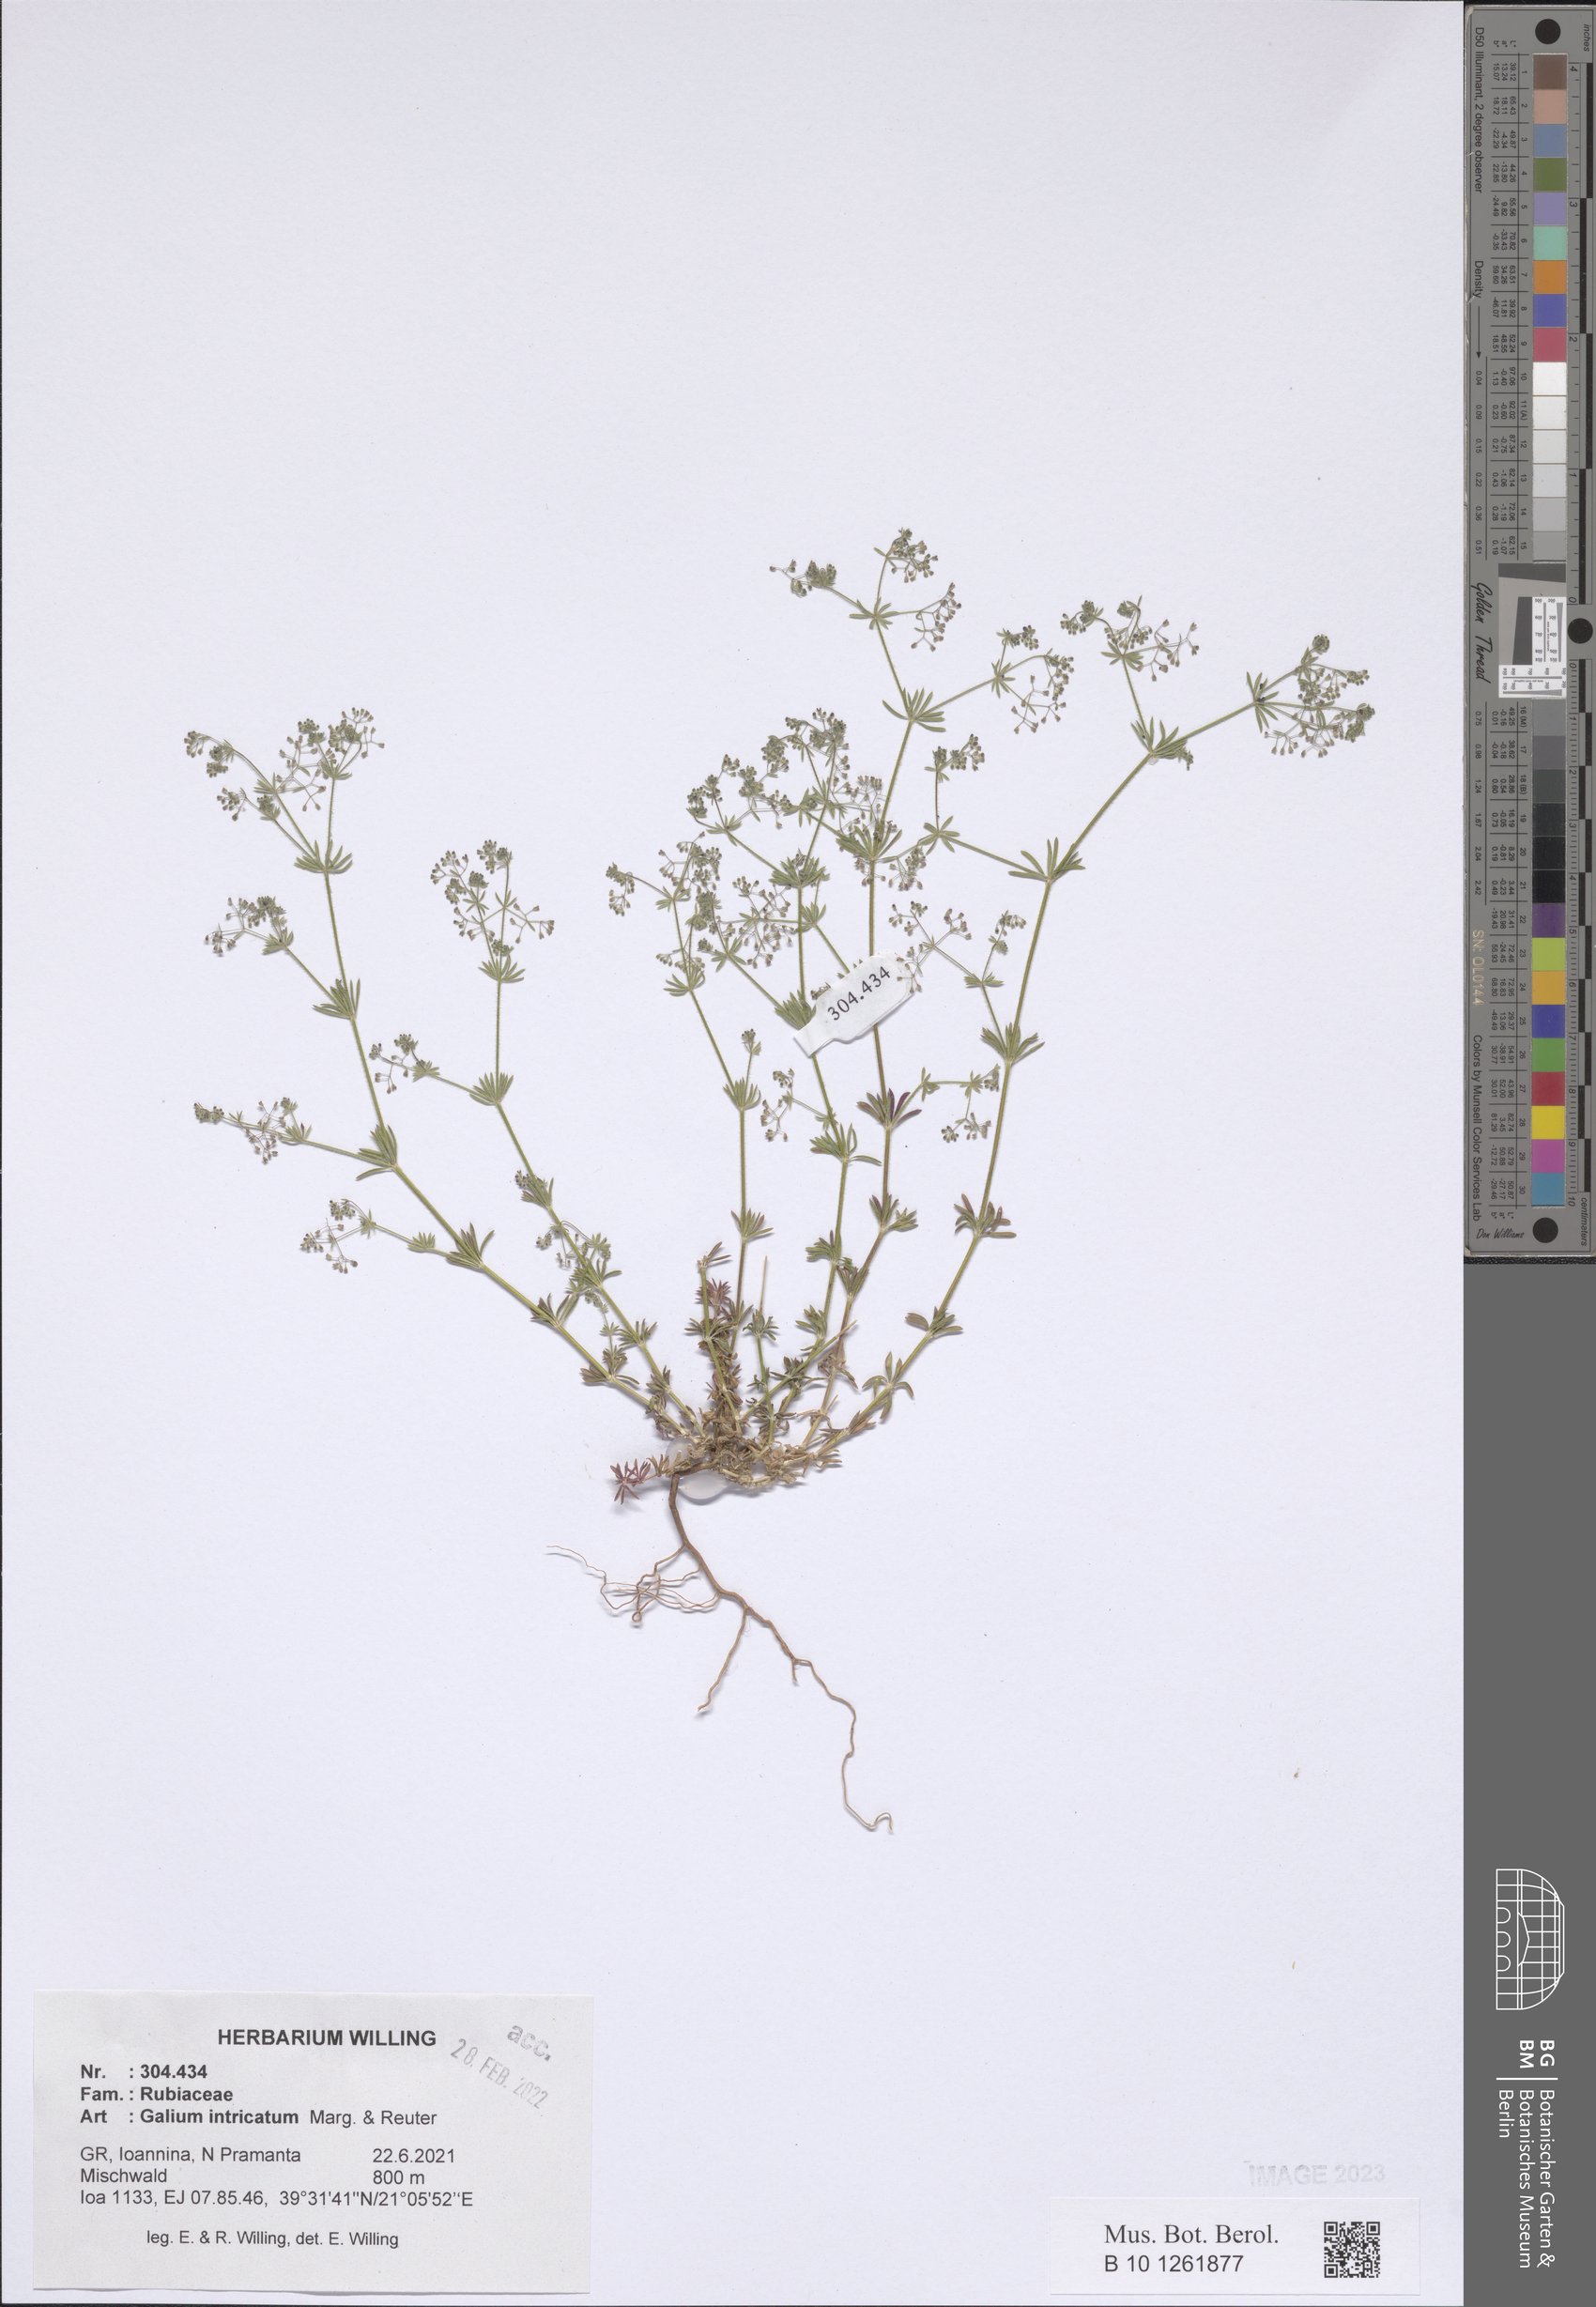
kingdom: Plantae
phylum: Tracheophyta
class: Magnoliopsida
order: Gentianales
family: Rubiaceae
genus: Galium
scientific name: Galium intricatum
